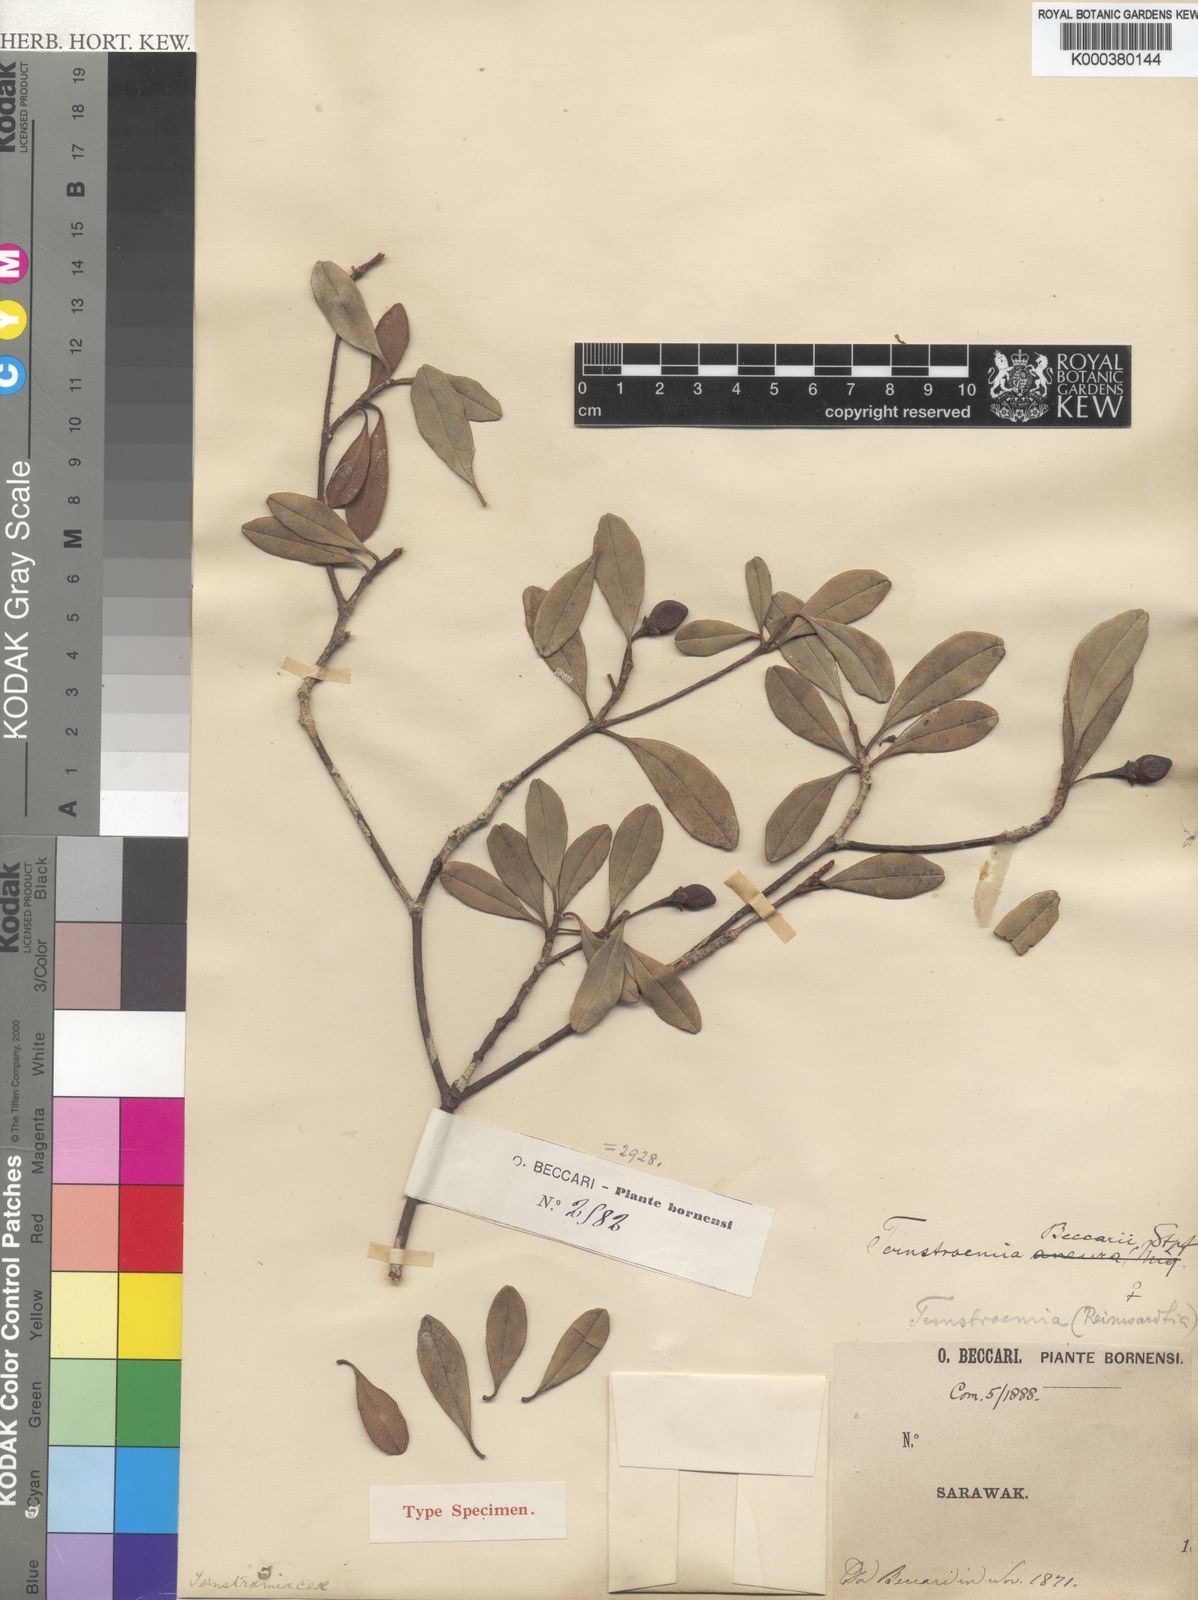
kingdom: Plantae
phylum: Tracheophyta
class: Magnoliopsida
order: Ericales
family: Pentaphylacaceae
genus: Ternstroemia
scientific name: Ternstroemia beccarii
